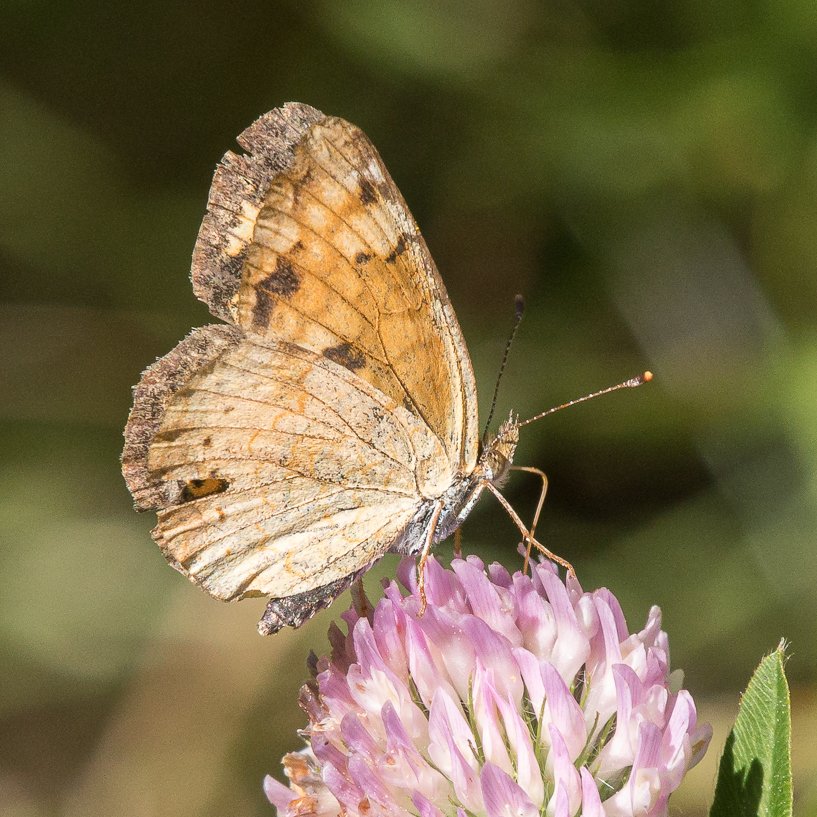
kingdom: Animalia
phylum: Arthropoda
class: Insecta
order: Lepidoptera
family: Nymphalidae
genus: Phyciodes
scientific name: Phyciodes tharos
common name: Northern Crescent
